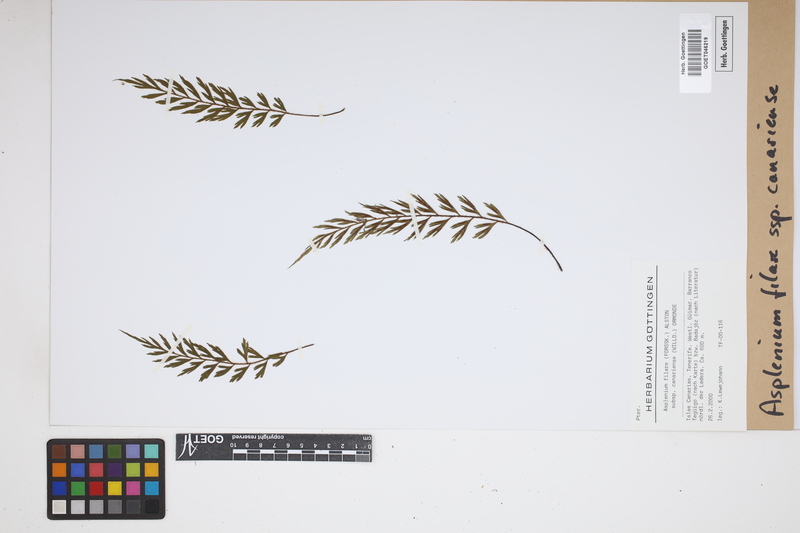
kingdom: Plantae
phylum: Tracheophyta
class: Polypodiopsida
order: Polypodiales
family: Aspleniaceae
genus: Asplenium
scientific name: Asplenium canariense
